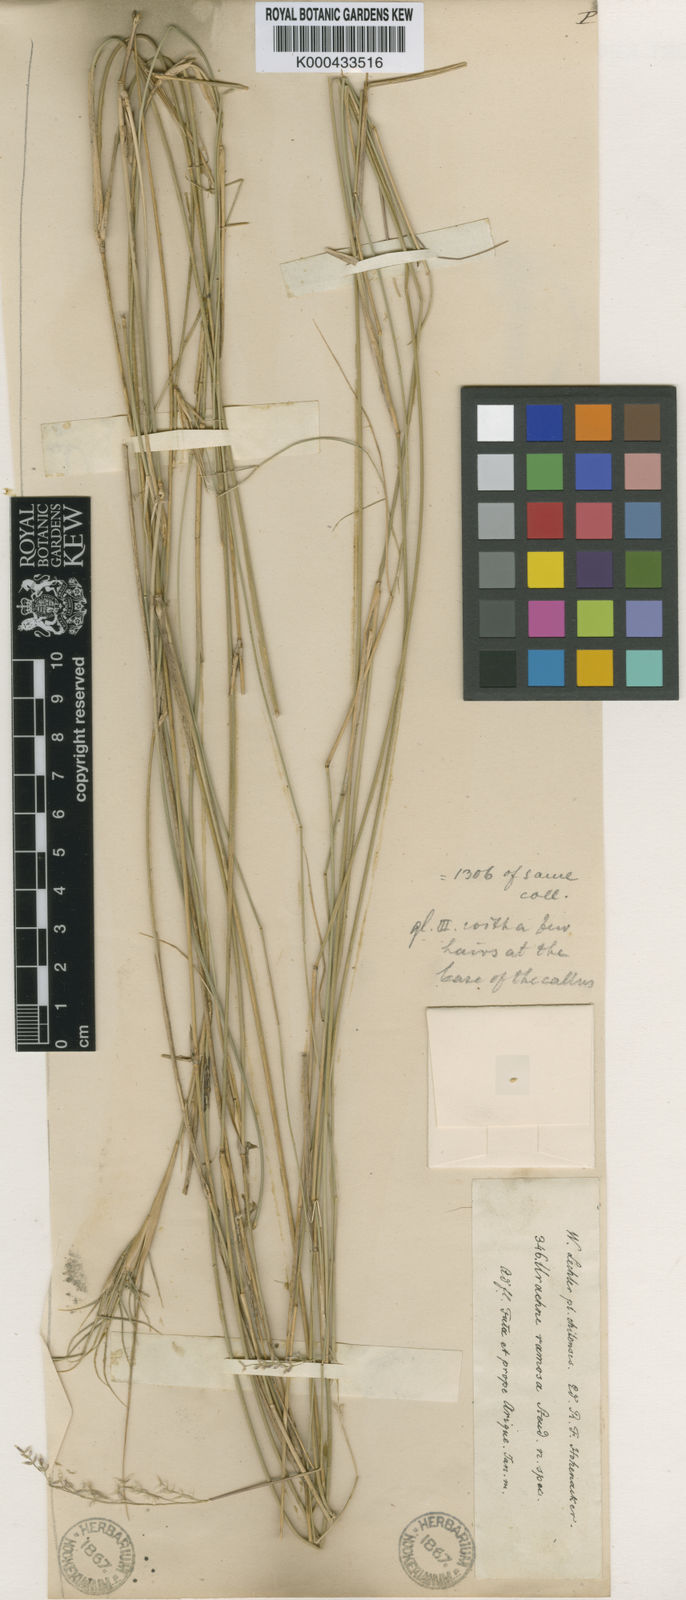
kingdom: Plantae
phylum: Tracheophyta
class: Liliopsida
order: Poales
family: Poaceae
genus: Nassella
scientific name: Nassella chilensis
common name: Chilean needlegrass
